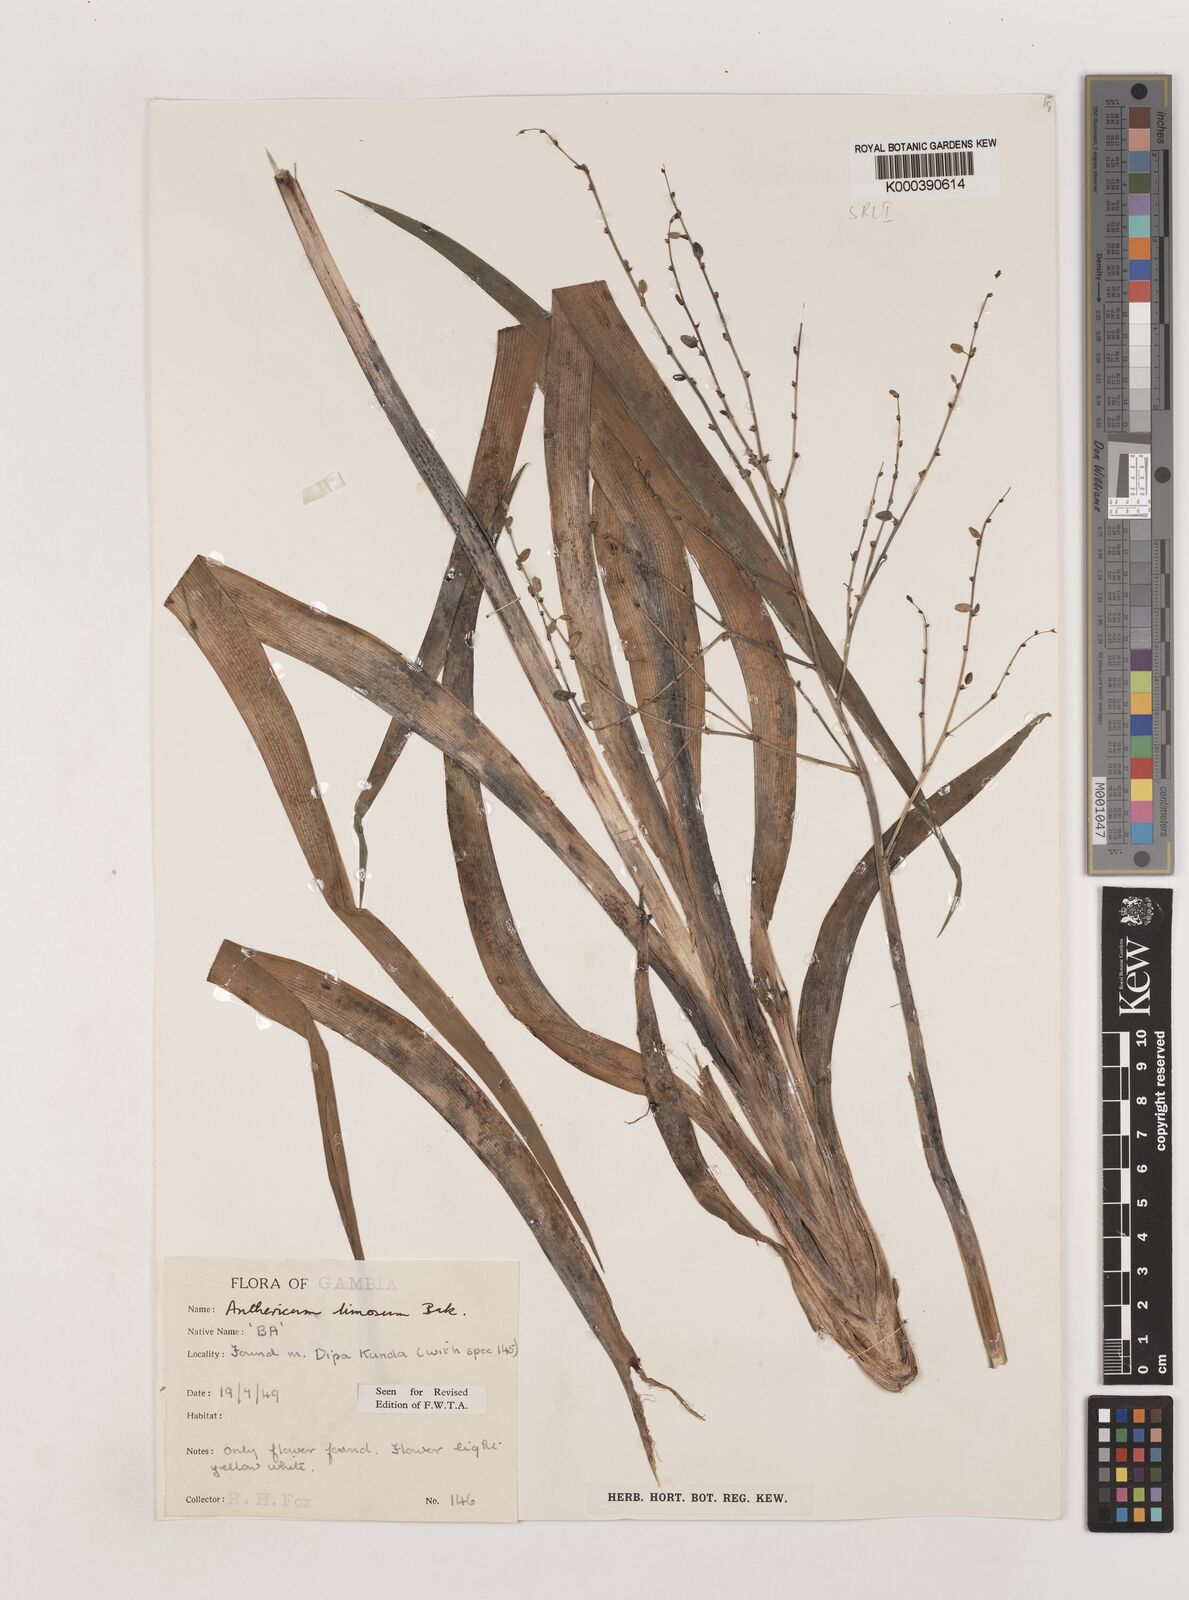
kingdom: Plantae
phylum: Tracheophyta
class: Liliopsida
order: Asparagales
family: Asparagaceae
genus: Chlorophytum
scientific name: Chlorophytum limosum
